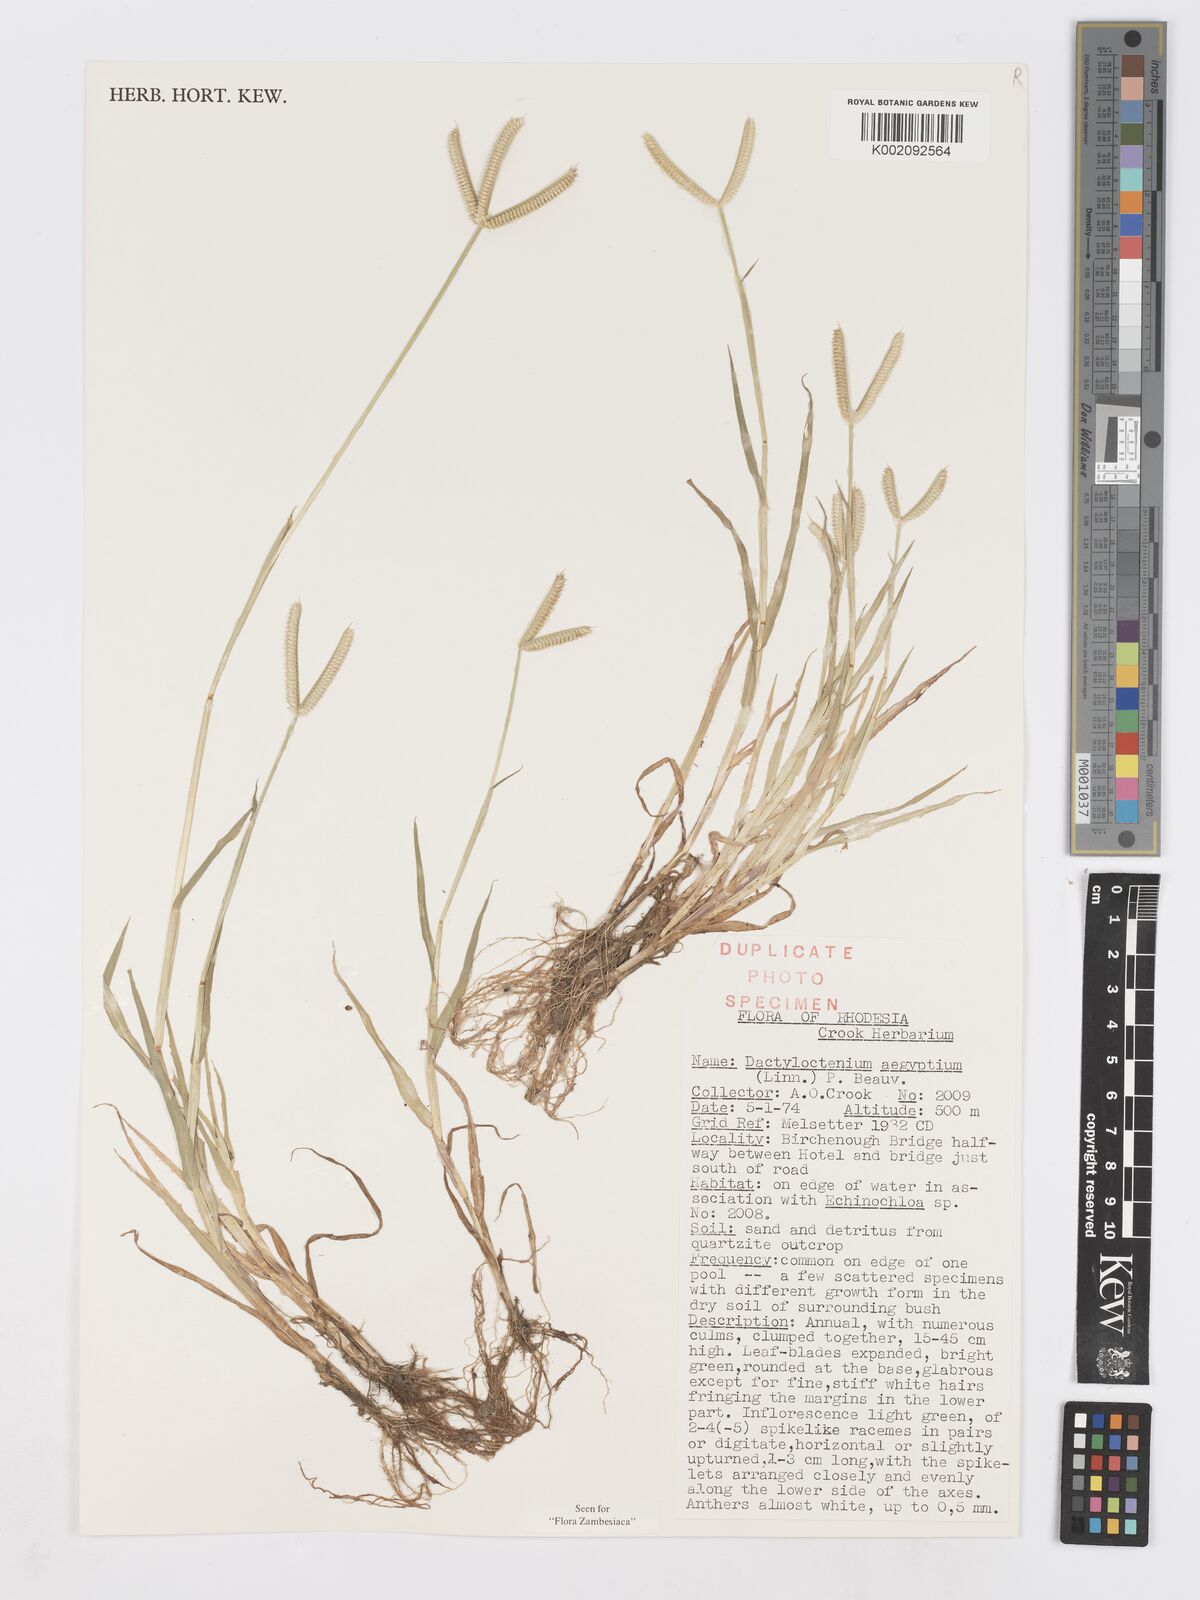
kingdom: Plantae
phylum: Tracheophyta
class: Liliopsida
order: Poales
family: Poaceae
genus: Dactyloctenium
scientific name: Dactyloctenium aegyptium
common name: Egyptian grass
